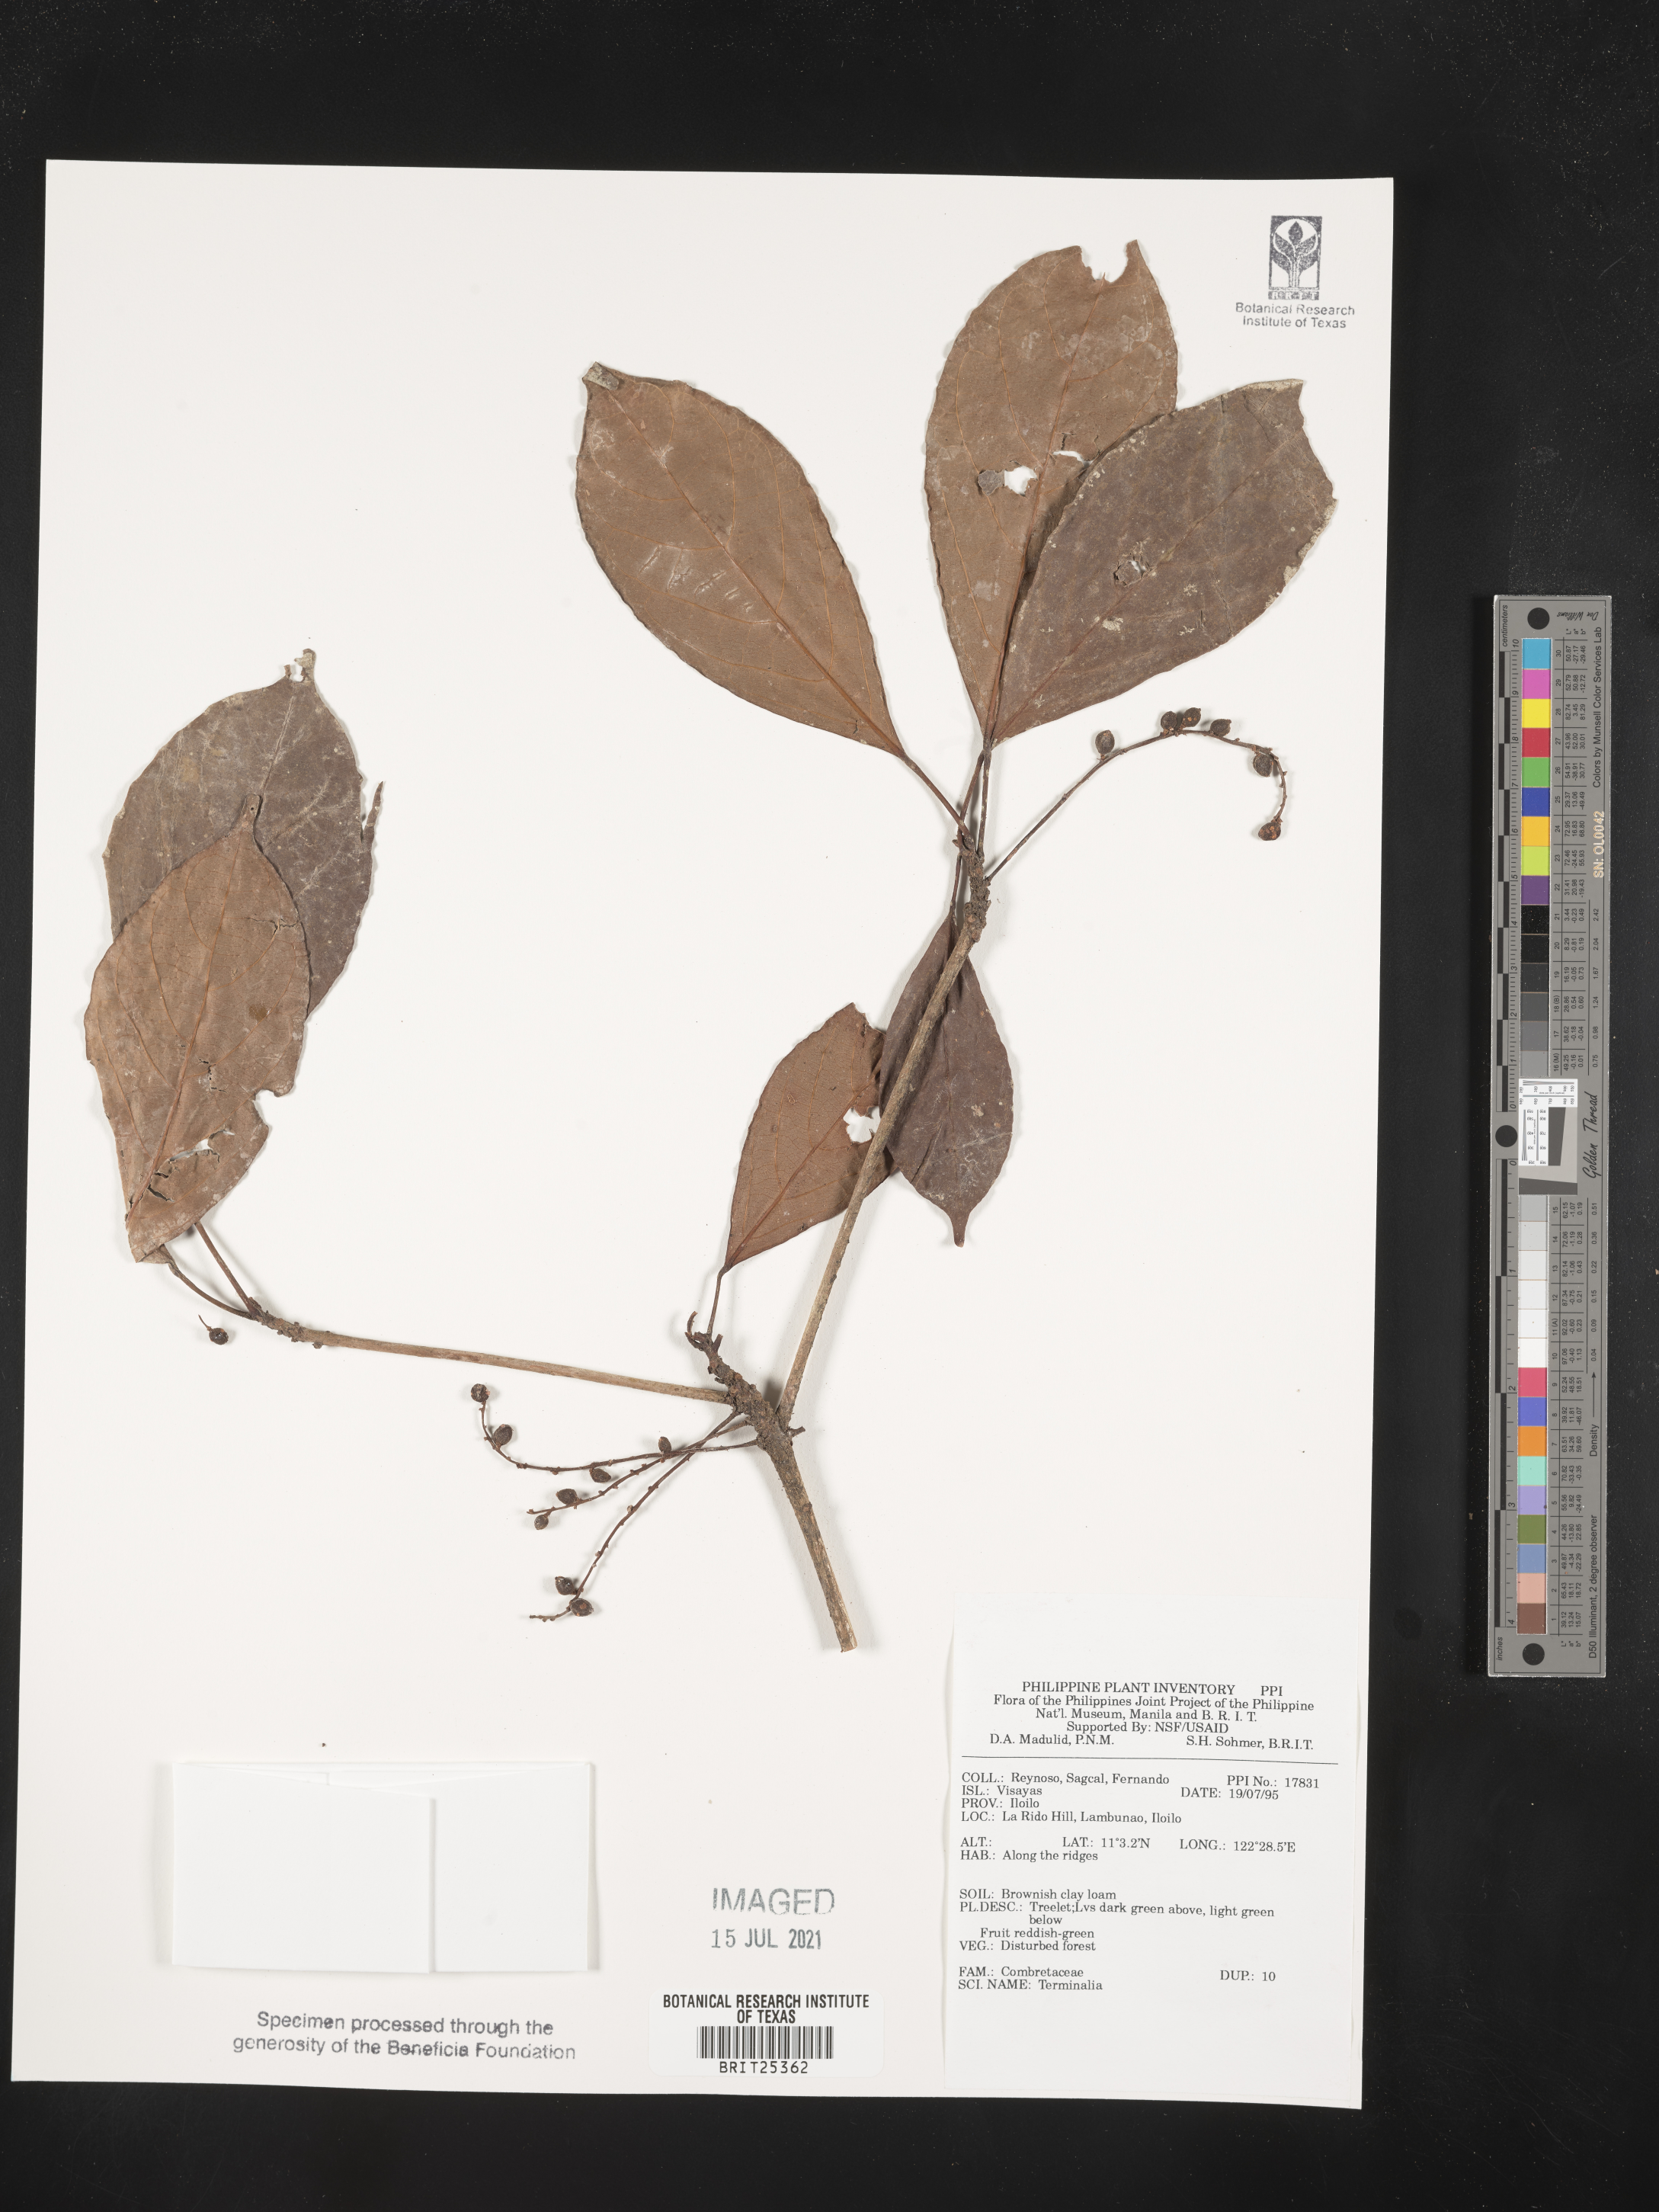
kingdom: Plantae
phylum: Tracheophyta
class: Magnoliopsida
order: Myrtales
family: Combretaceae
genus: Terminalia
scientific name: Terminalia
